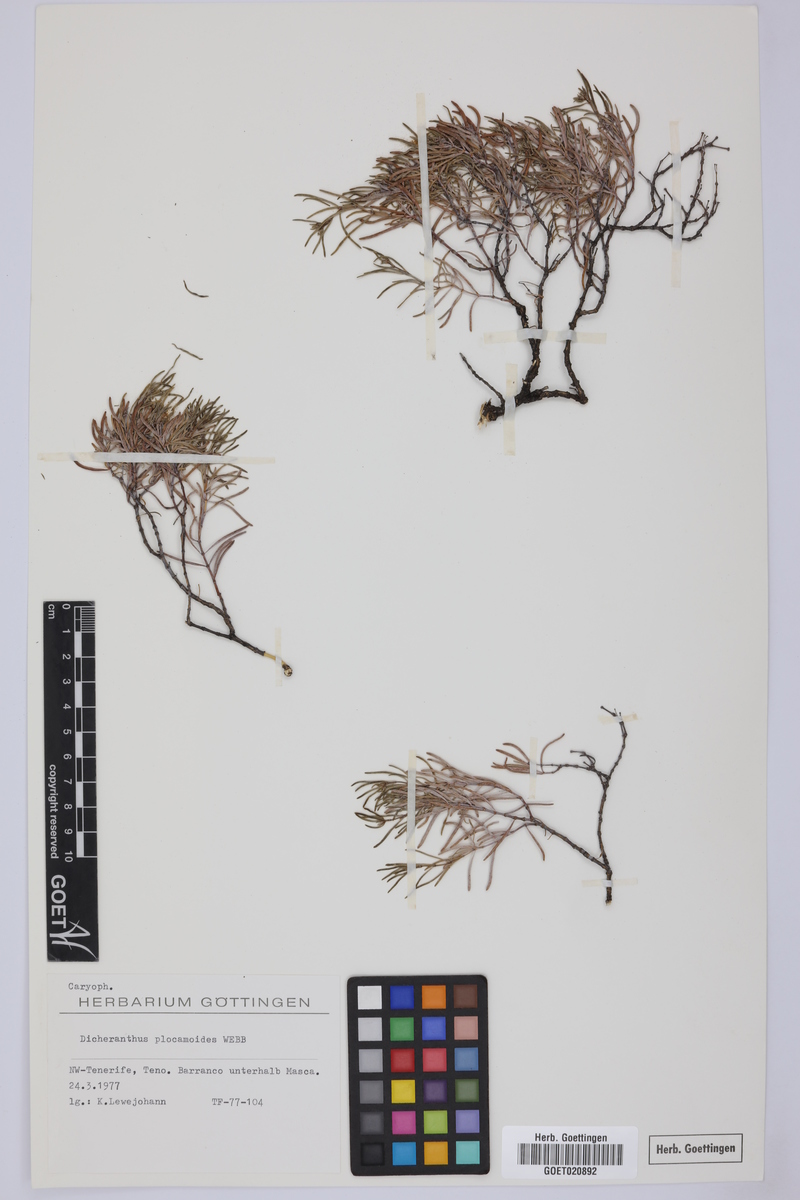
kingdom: Plantae
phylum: Tracheophyta
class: Magnoliopsida
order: Caryophyllales
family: Caryophyllaceae
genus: Dicheranthus
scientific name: Dicheranthus plocamoides
